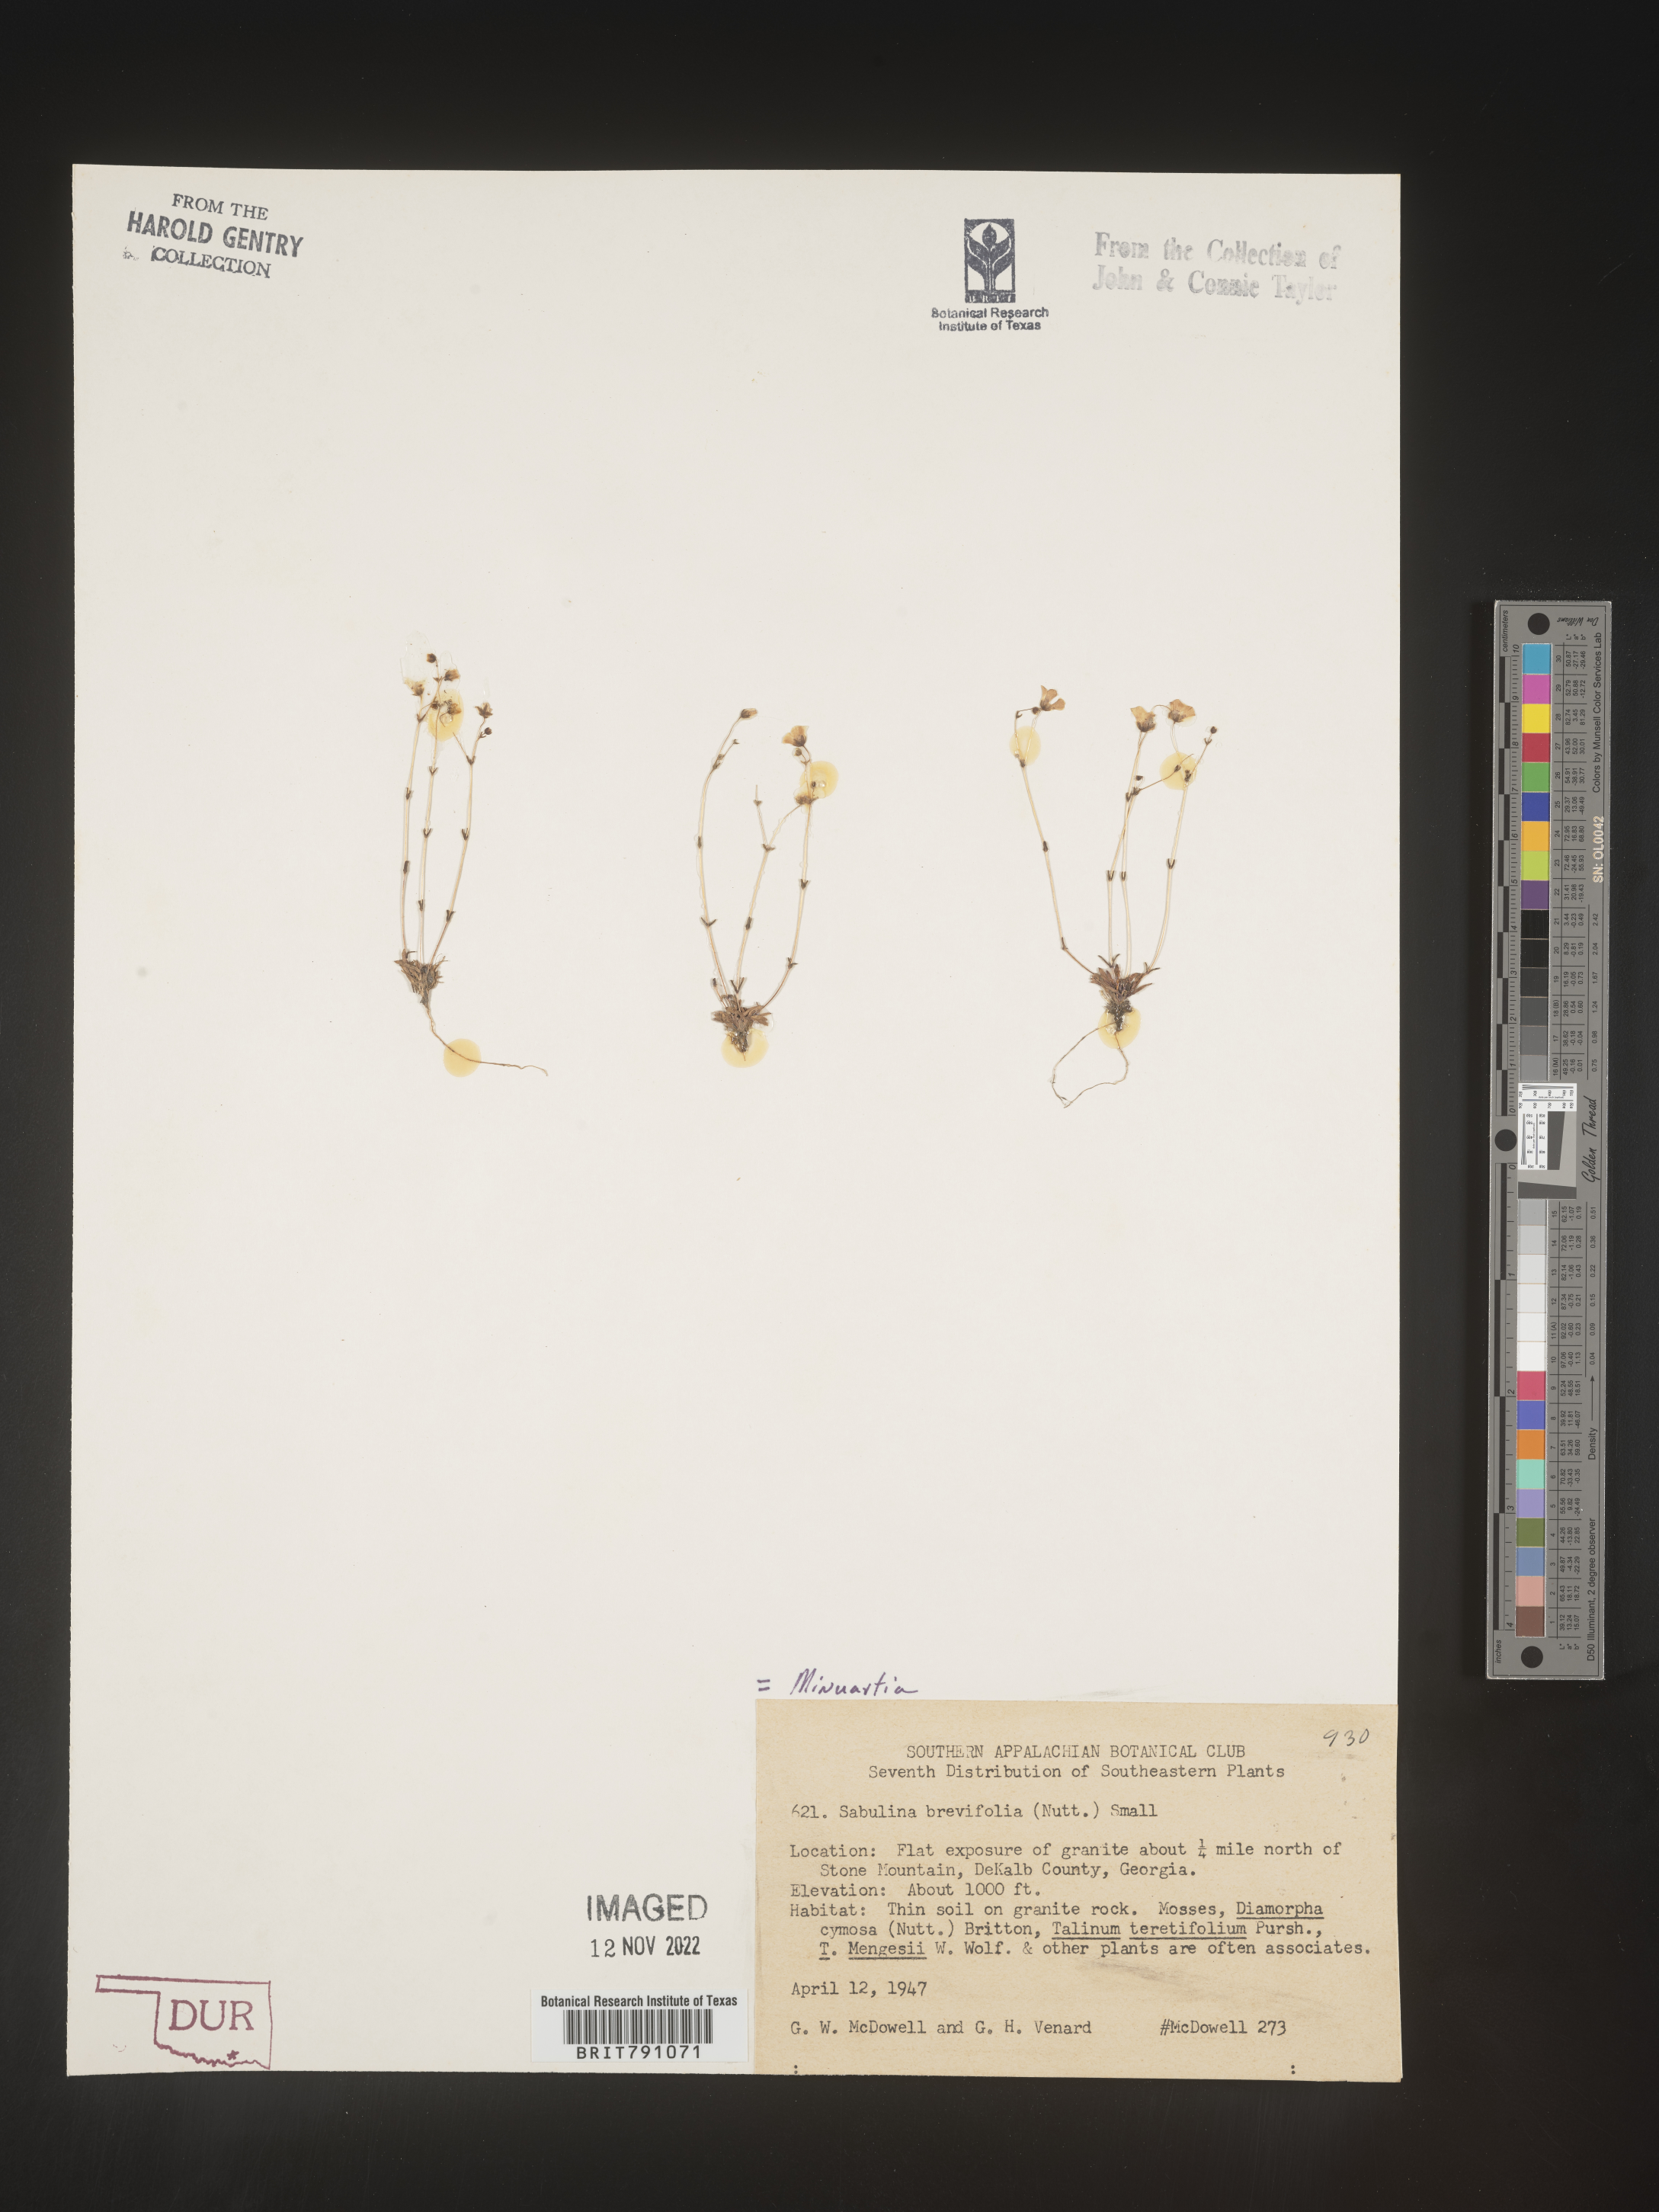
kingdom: Plantae
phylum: Tracheophyta
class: Magnoliopsida
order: Caryophyllales
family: Caryophyllaceae
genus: Geocarpon
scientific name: Geocarpon uniflorum
